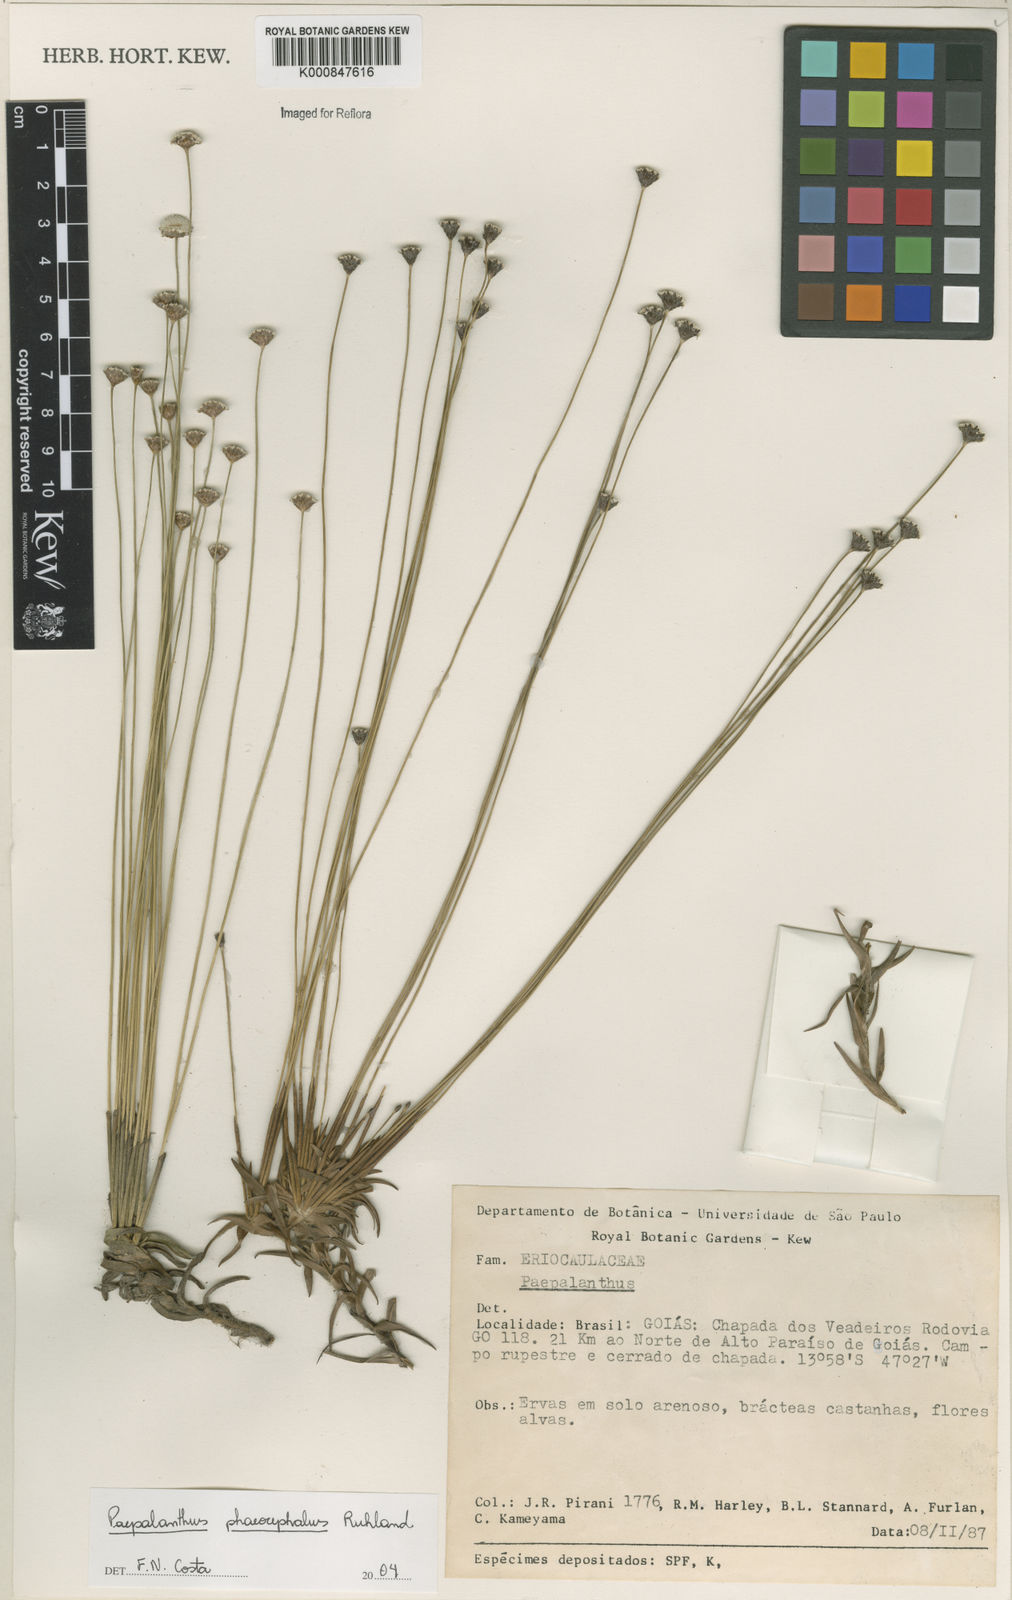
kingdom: Plantae
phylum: Tracheophyta
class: Liliopsida
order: Poales
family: Eriocaulaceae
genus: Paepalanthus
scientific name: Paepalanthus phaeocephalus
